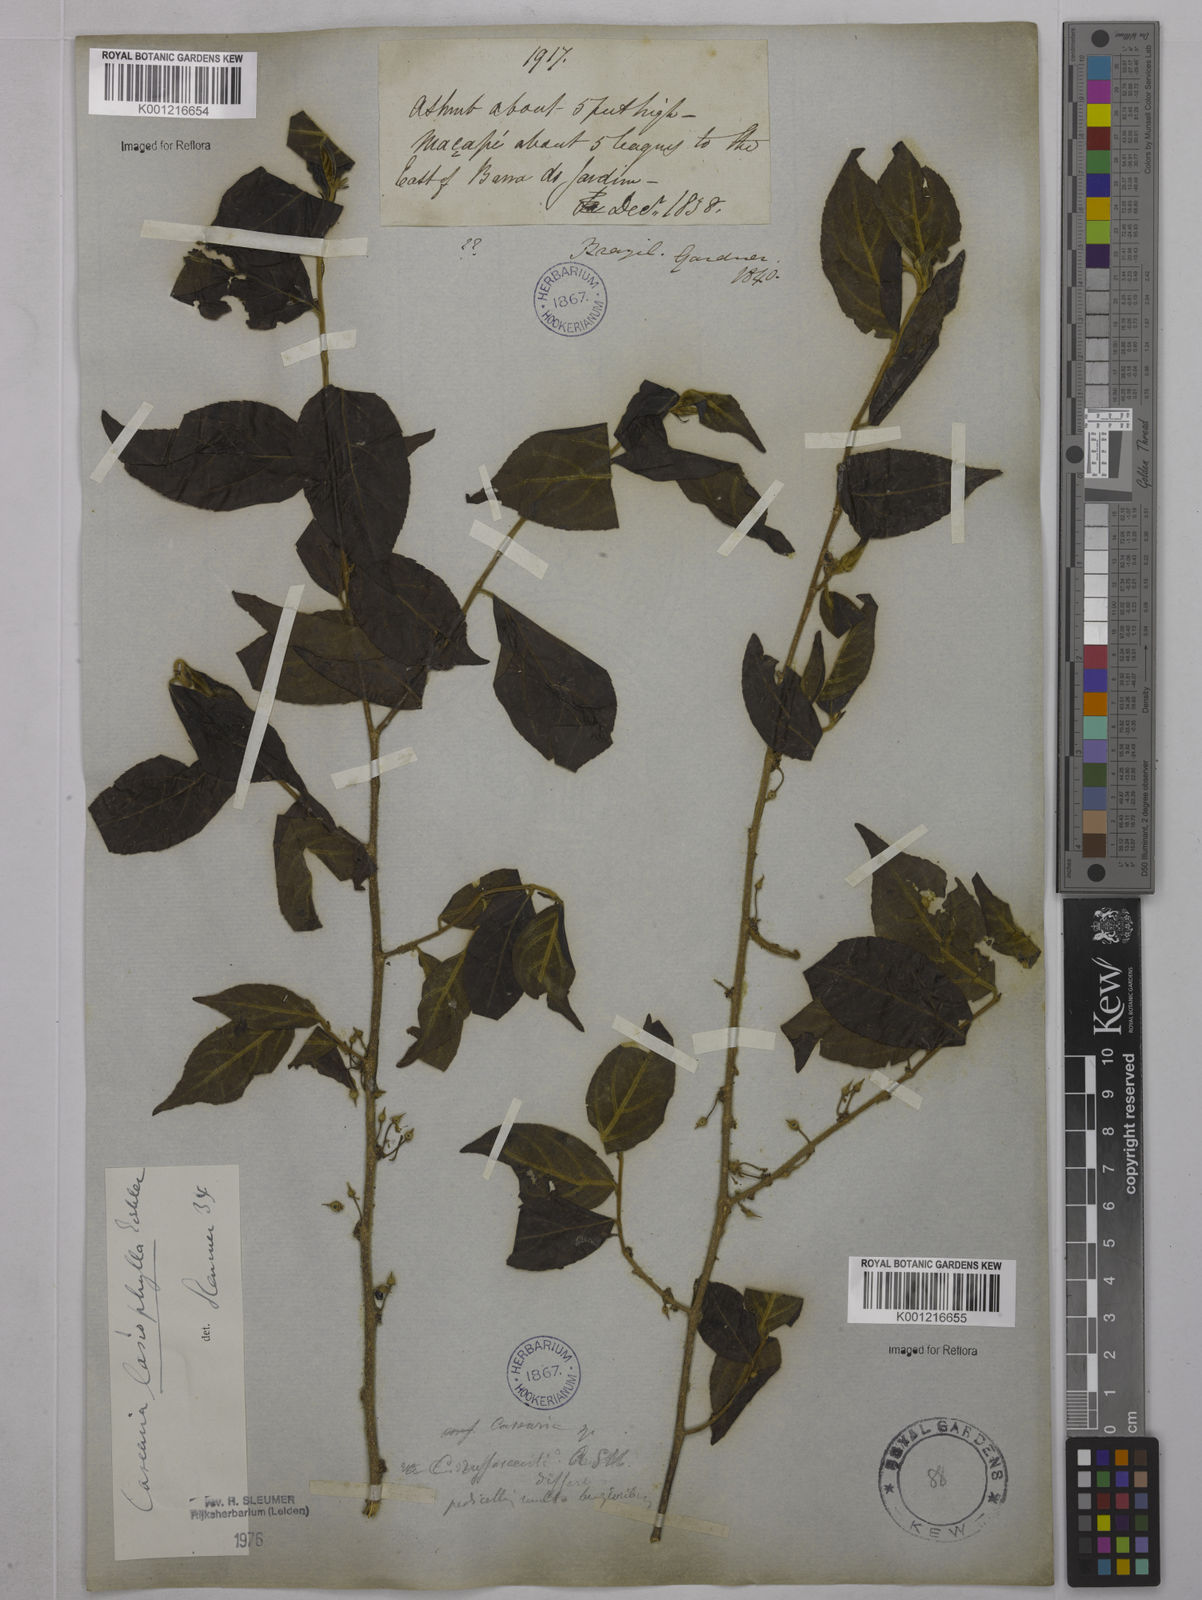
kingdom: Plantae
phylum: Tracheophyta
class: Magnoliopsida
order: Malpighiales
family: Salicaceae
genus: Casearia
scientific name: Casearia lasiophylla
